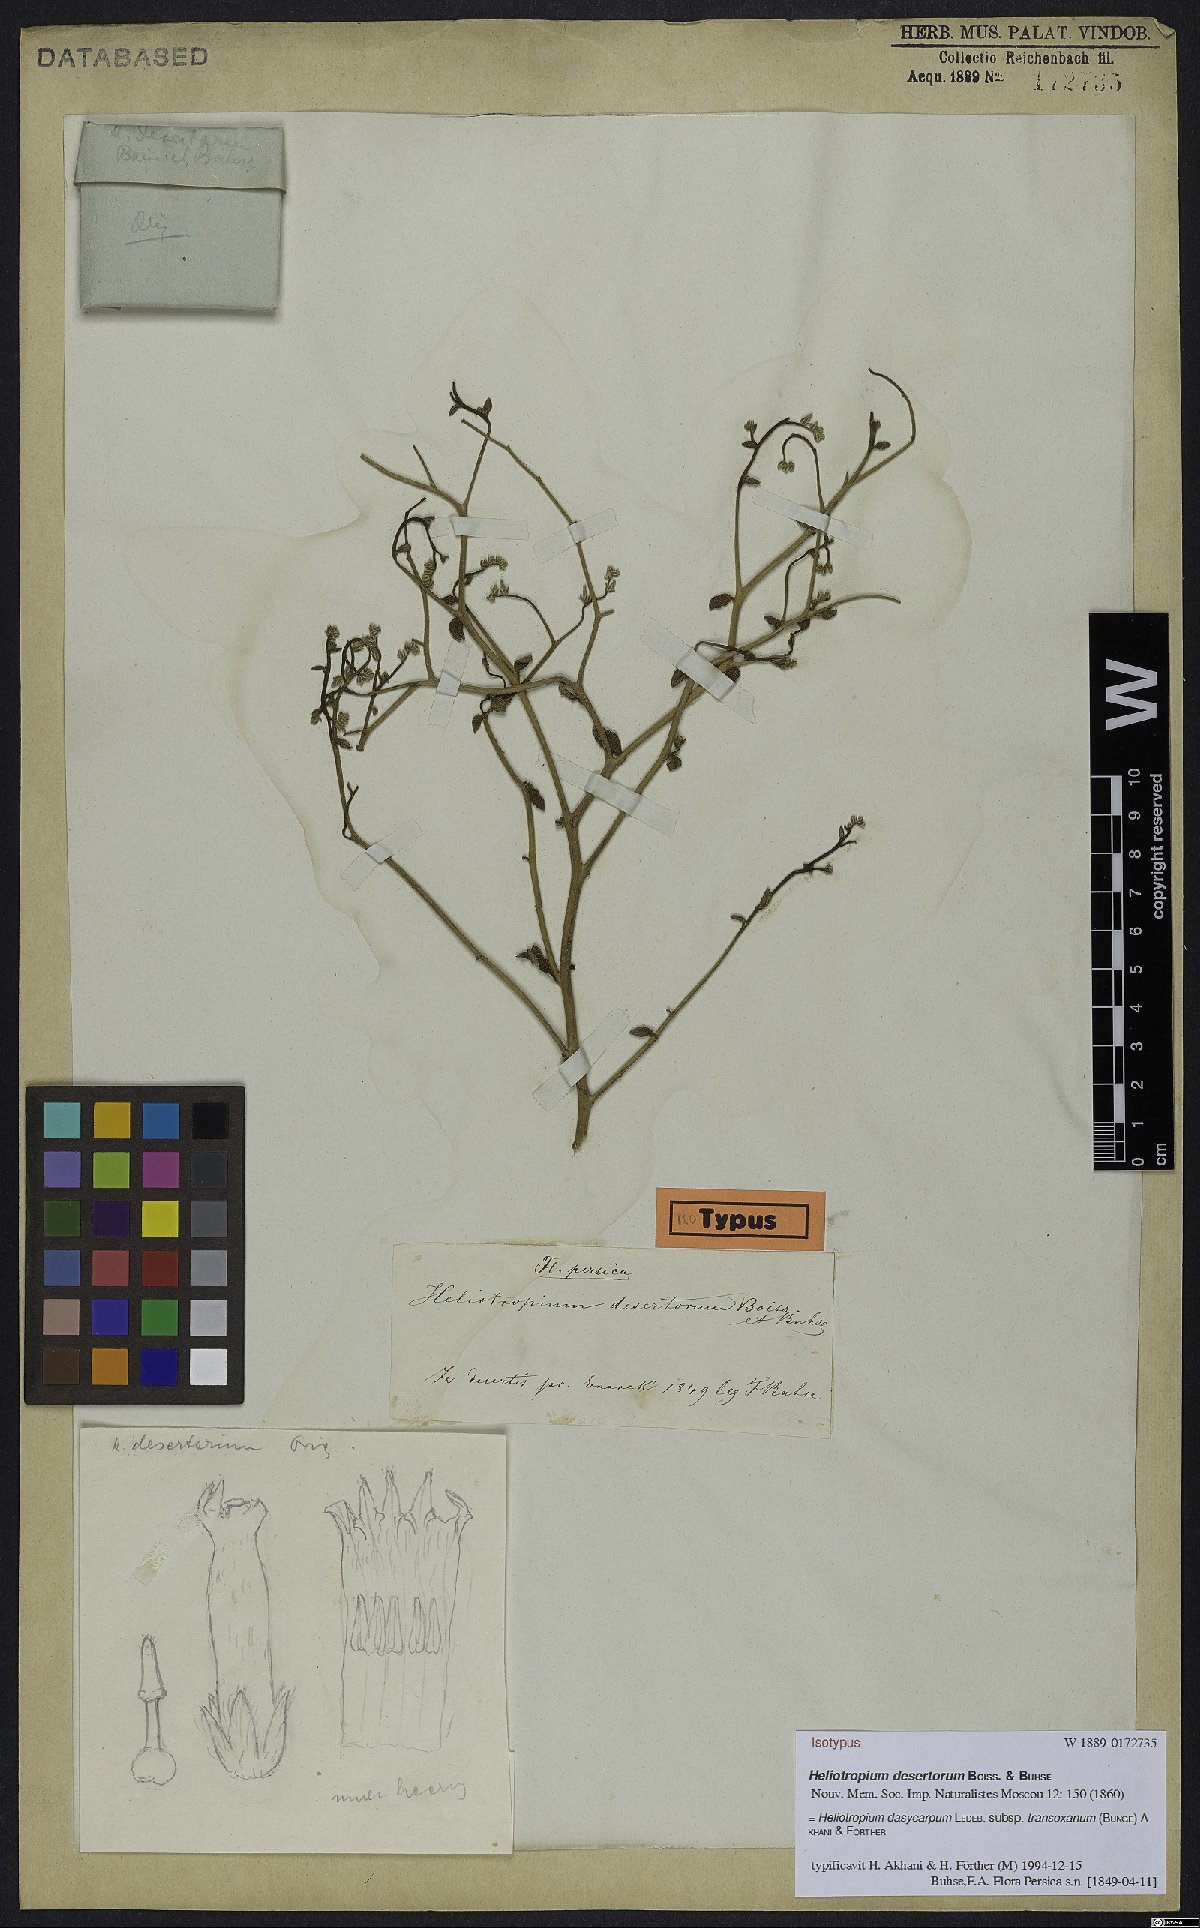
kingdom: Plantae
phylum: Tracheophyta
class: Magnoliopsida
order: Boraginales
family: Heliotropiaceae
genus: Heliotropium
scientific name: Heliotropium dasycarpum
